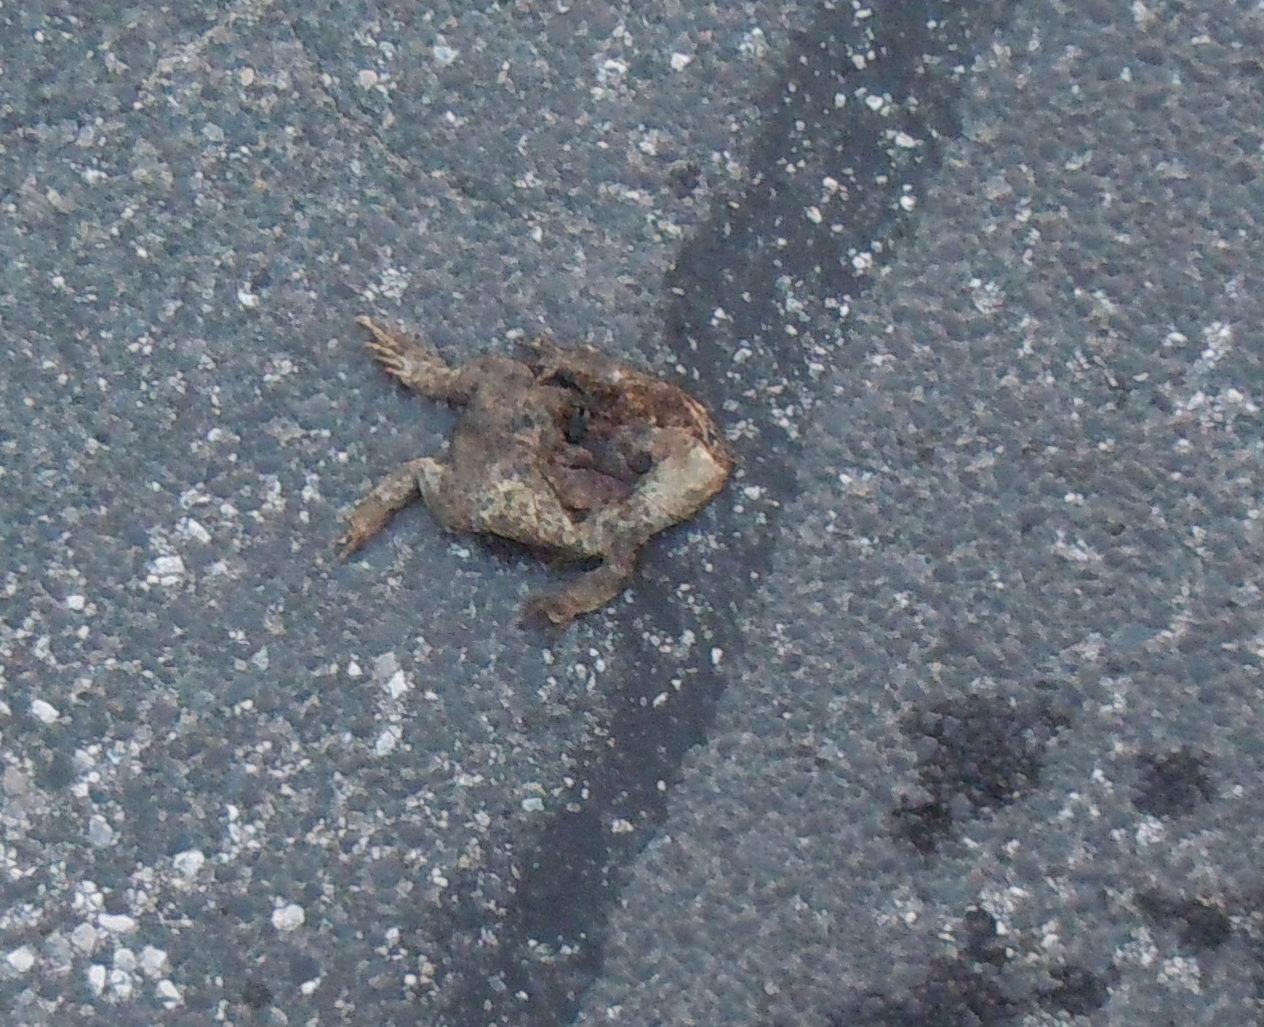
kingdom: Animalia
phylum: Chordata
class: Amphibia
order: Anura
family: Bufonidae
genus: Bufo
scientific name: Bufo bufo
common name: Common toad
